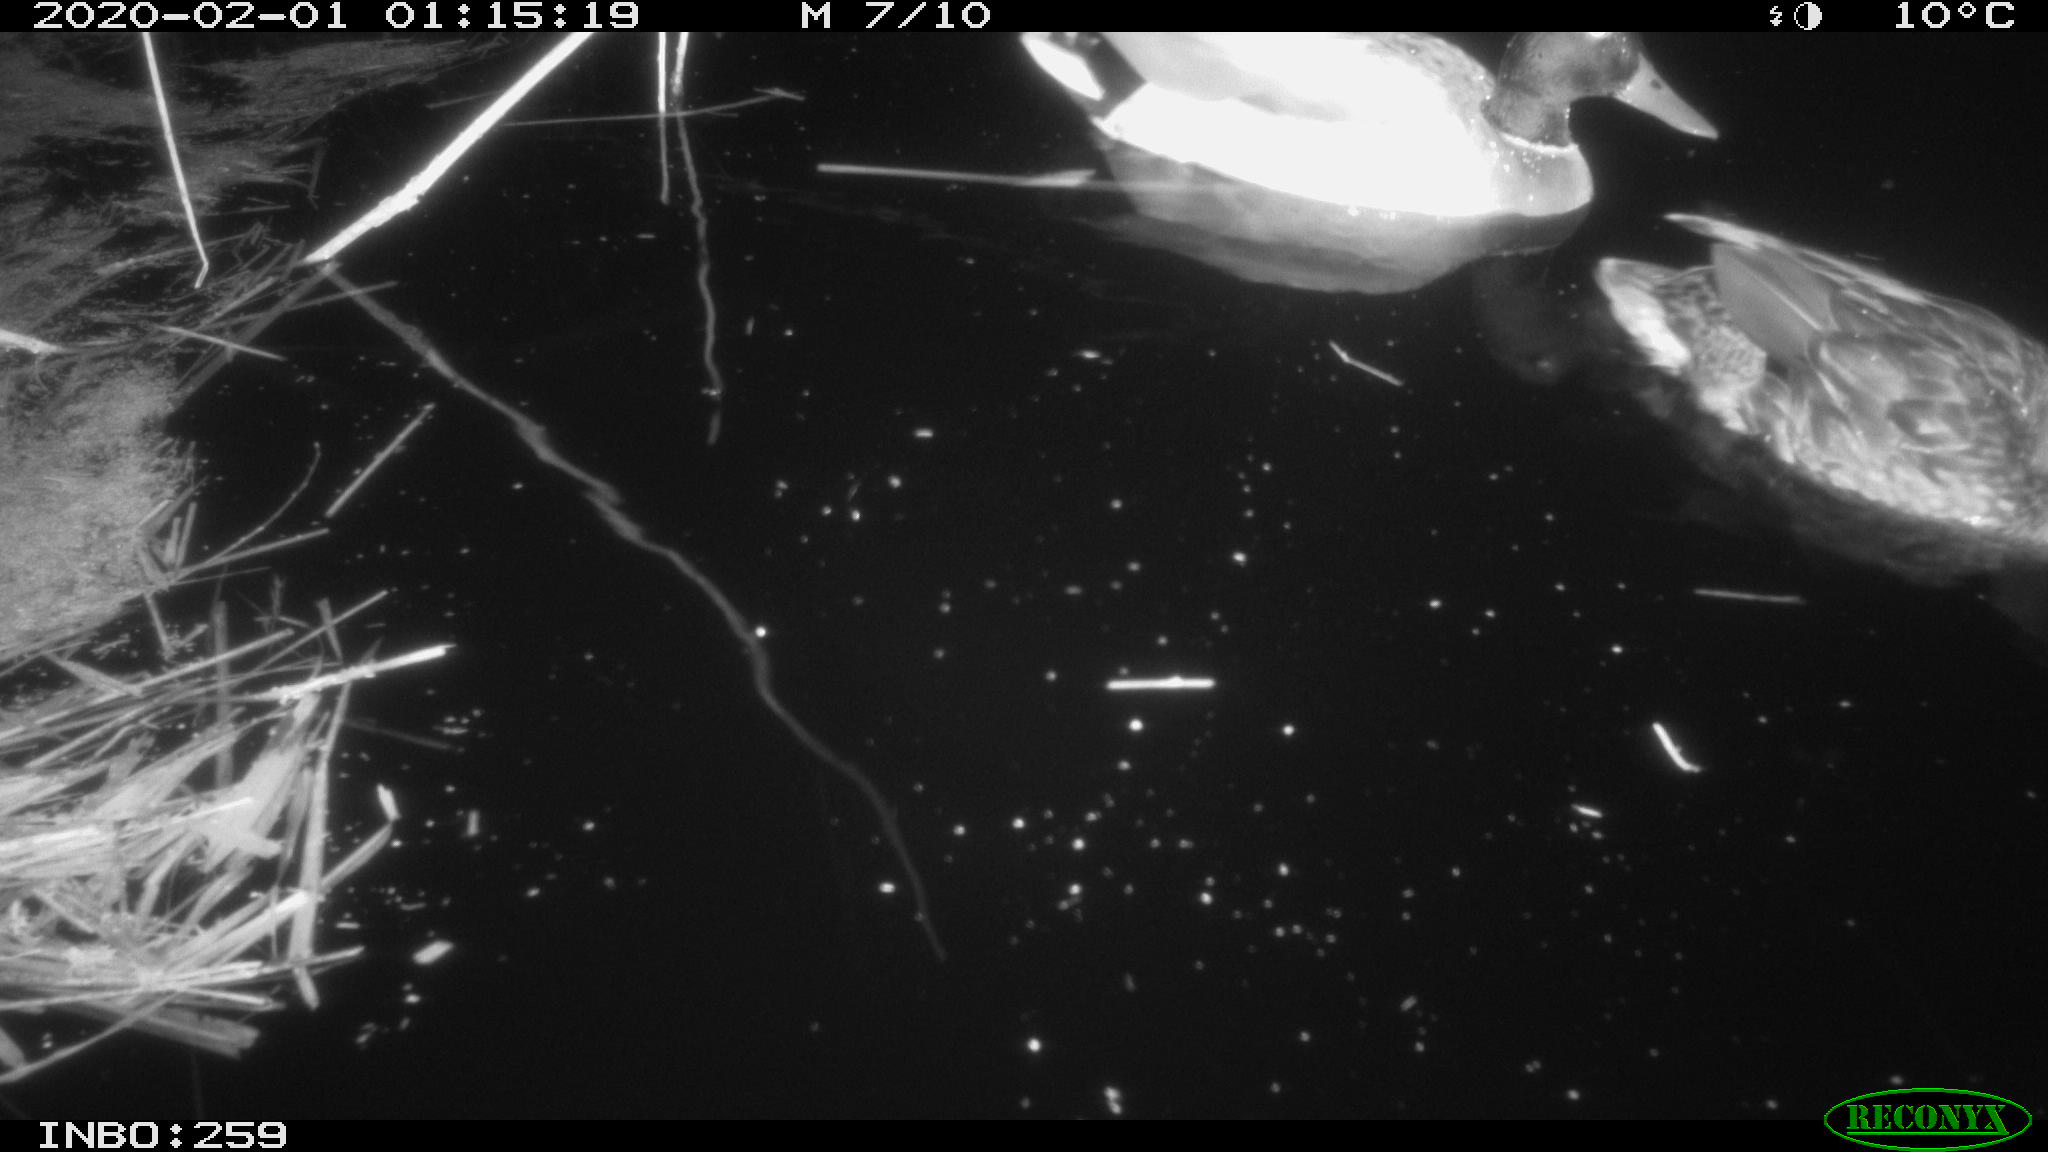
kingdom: Animalia
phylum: Chordata
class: Aves
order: Anseriformes
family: Anatidae
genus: Anas
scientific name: Anas platyrhynchos
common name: Mallard
